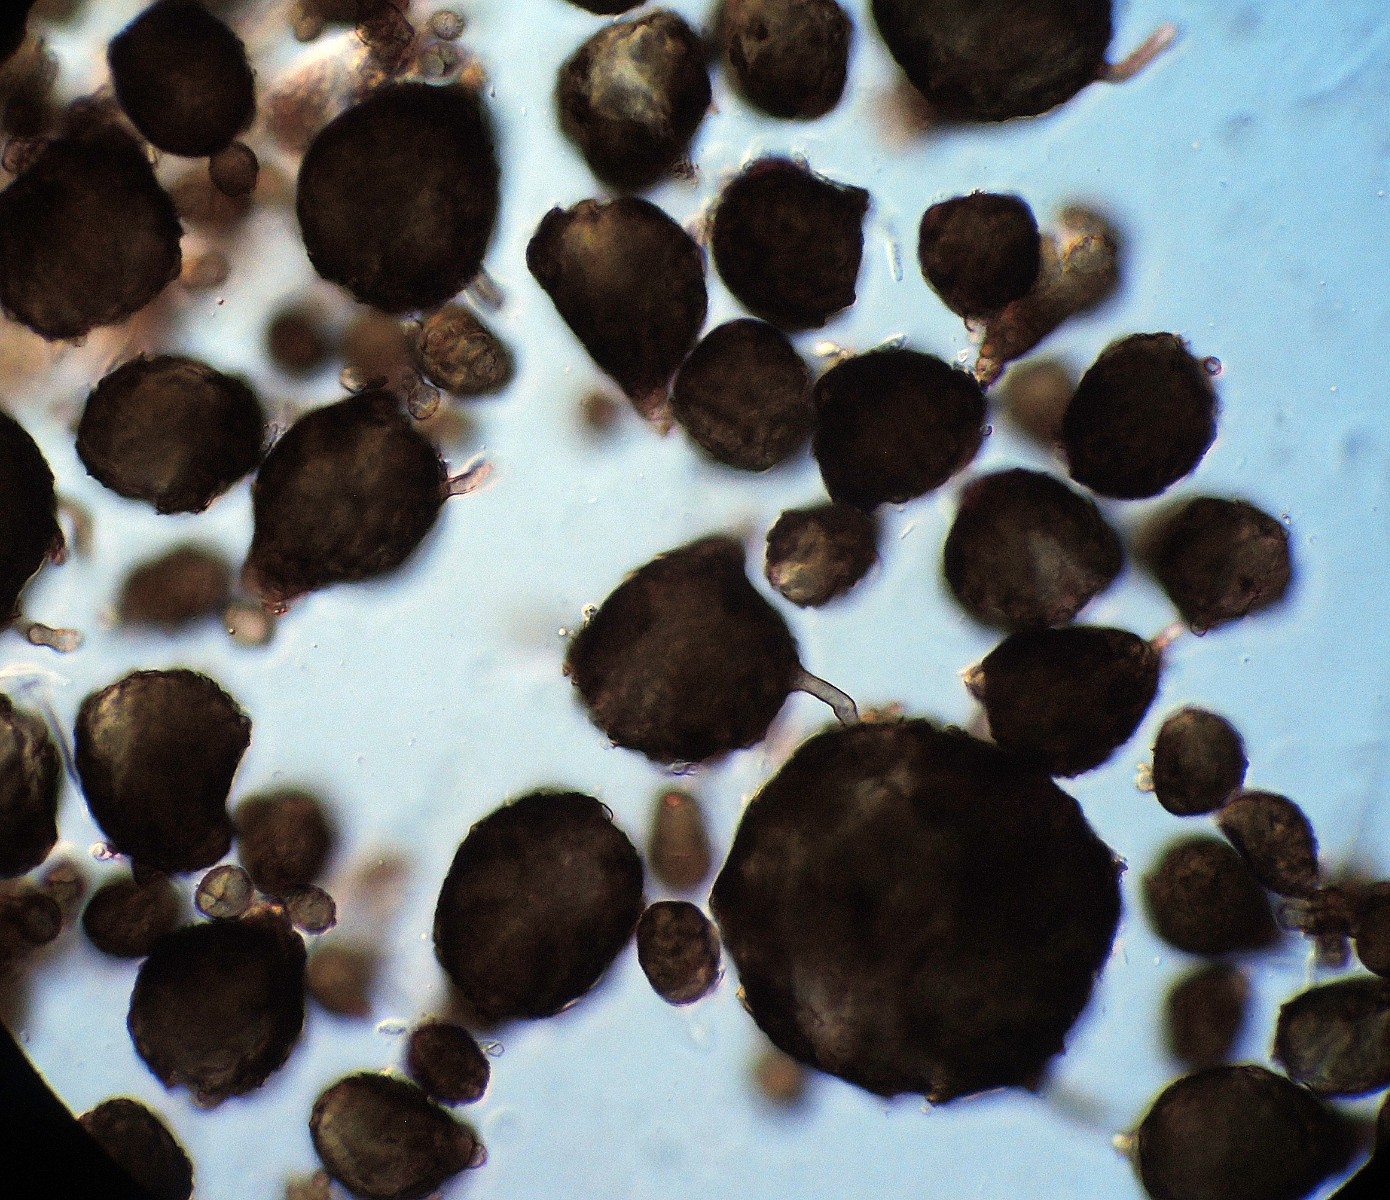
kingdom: Fungi
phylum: Ascomycota
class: Dothideomycetes
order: Dothideales
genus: Monodictys
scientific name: Monodictys
